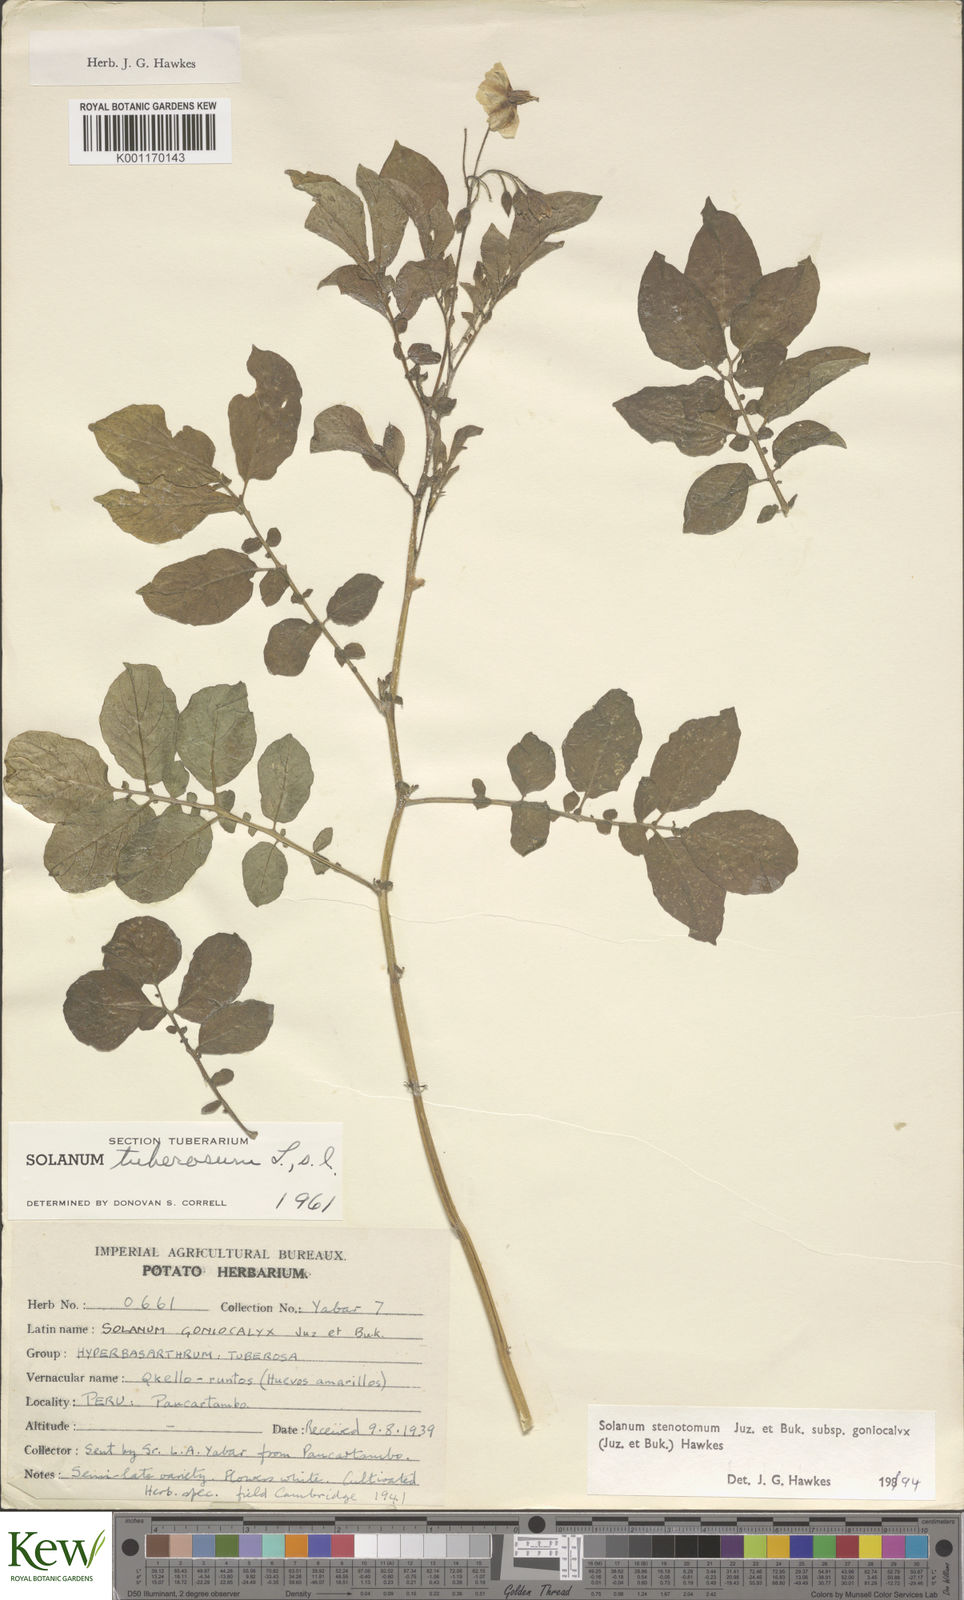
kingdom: Plantae
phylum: Tracheophyta
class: Magnoliopsida
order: Solanales
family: Solanaceae
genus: Solanum
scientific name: Solanum tuberosum
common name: Potato
